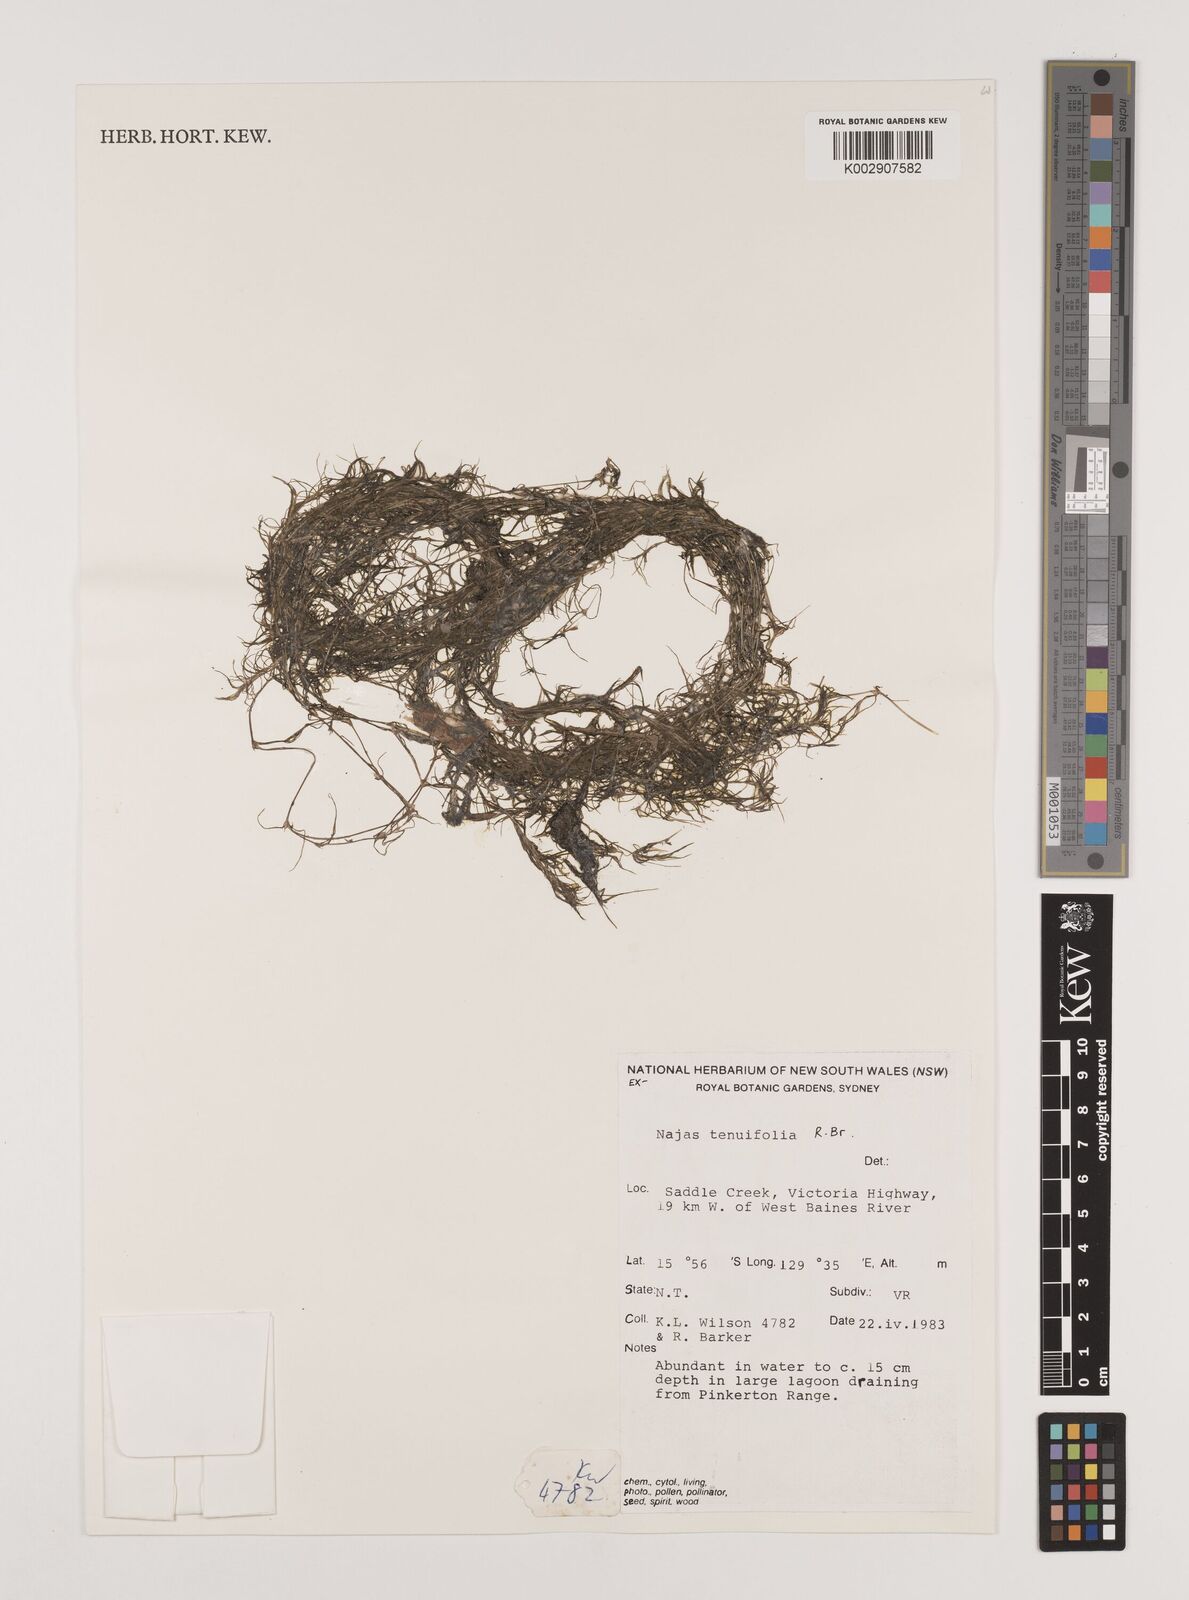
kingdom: Plantae
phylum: Tracheophyta
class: Liliopsida
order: Alismatales
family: Hydrocharitaceae
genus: Najas
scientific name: Najas tenuifolia
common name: Thin-leaved naiad
